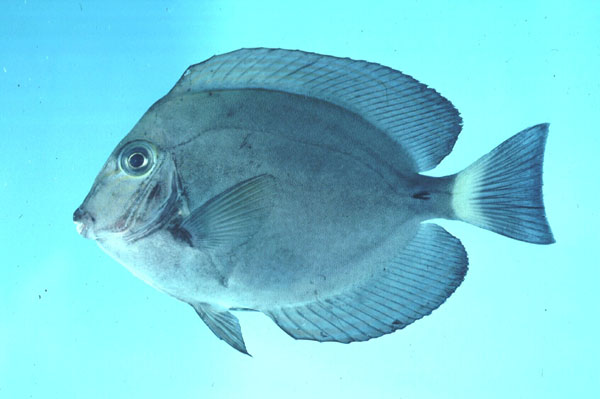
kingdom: Animalia
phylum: Chordata
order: Perciformes
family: Acanthuridae
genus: Acanthurus
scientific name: Acanthurus blochii
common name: Blue-banded pualu
